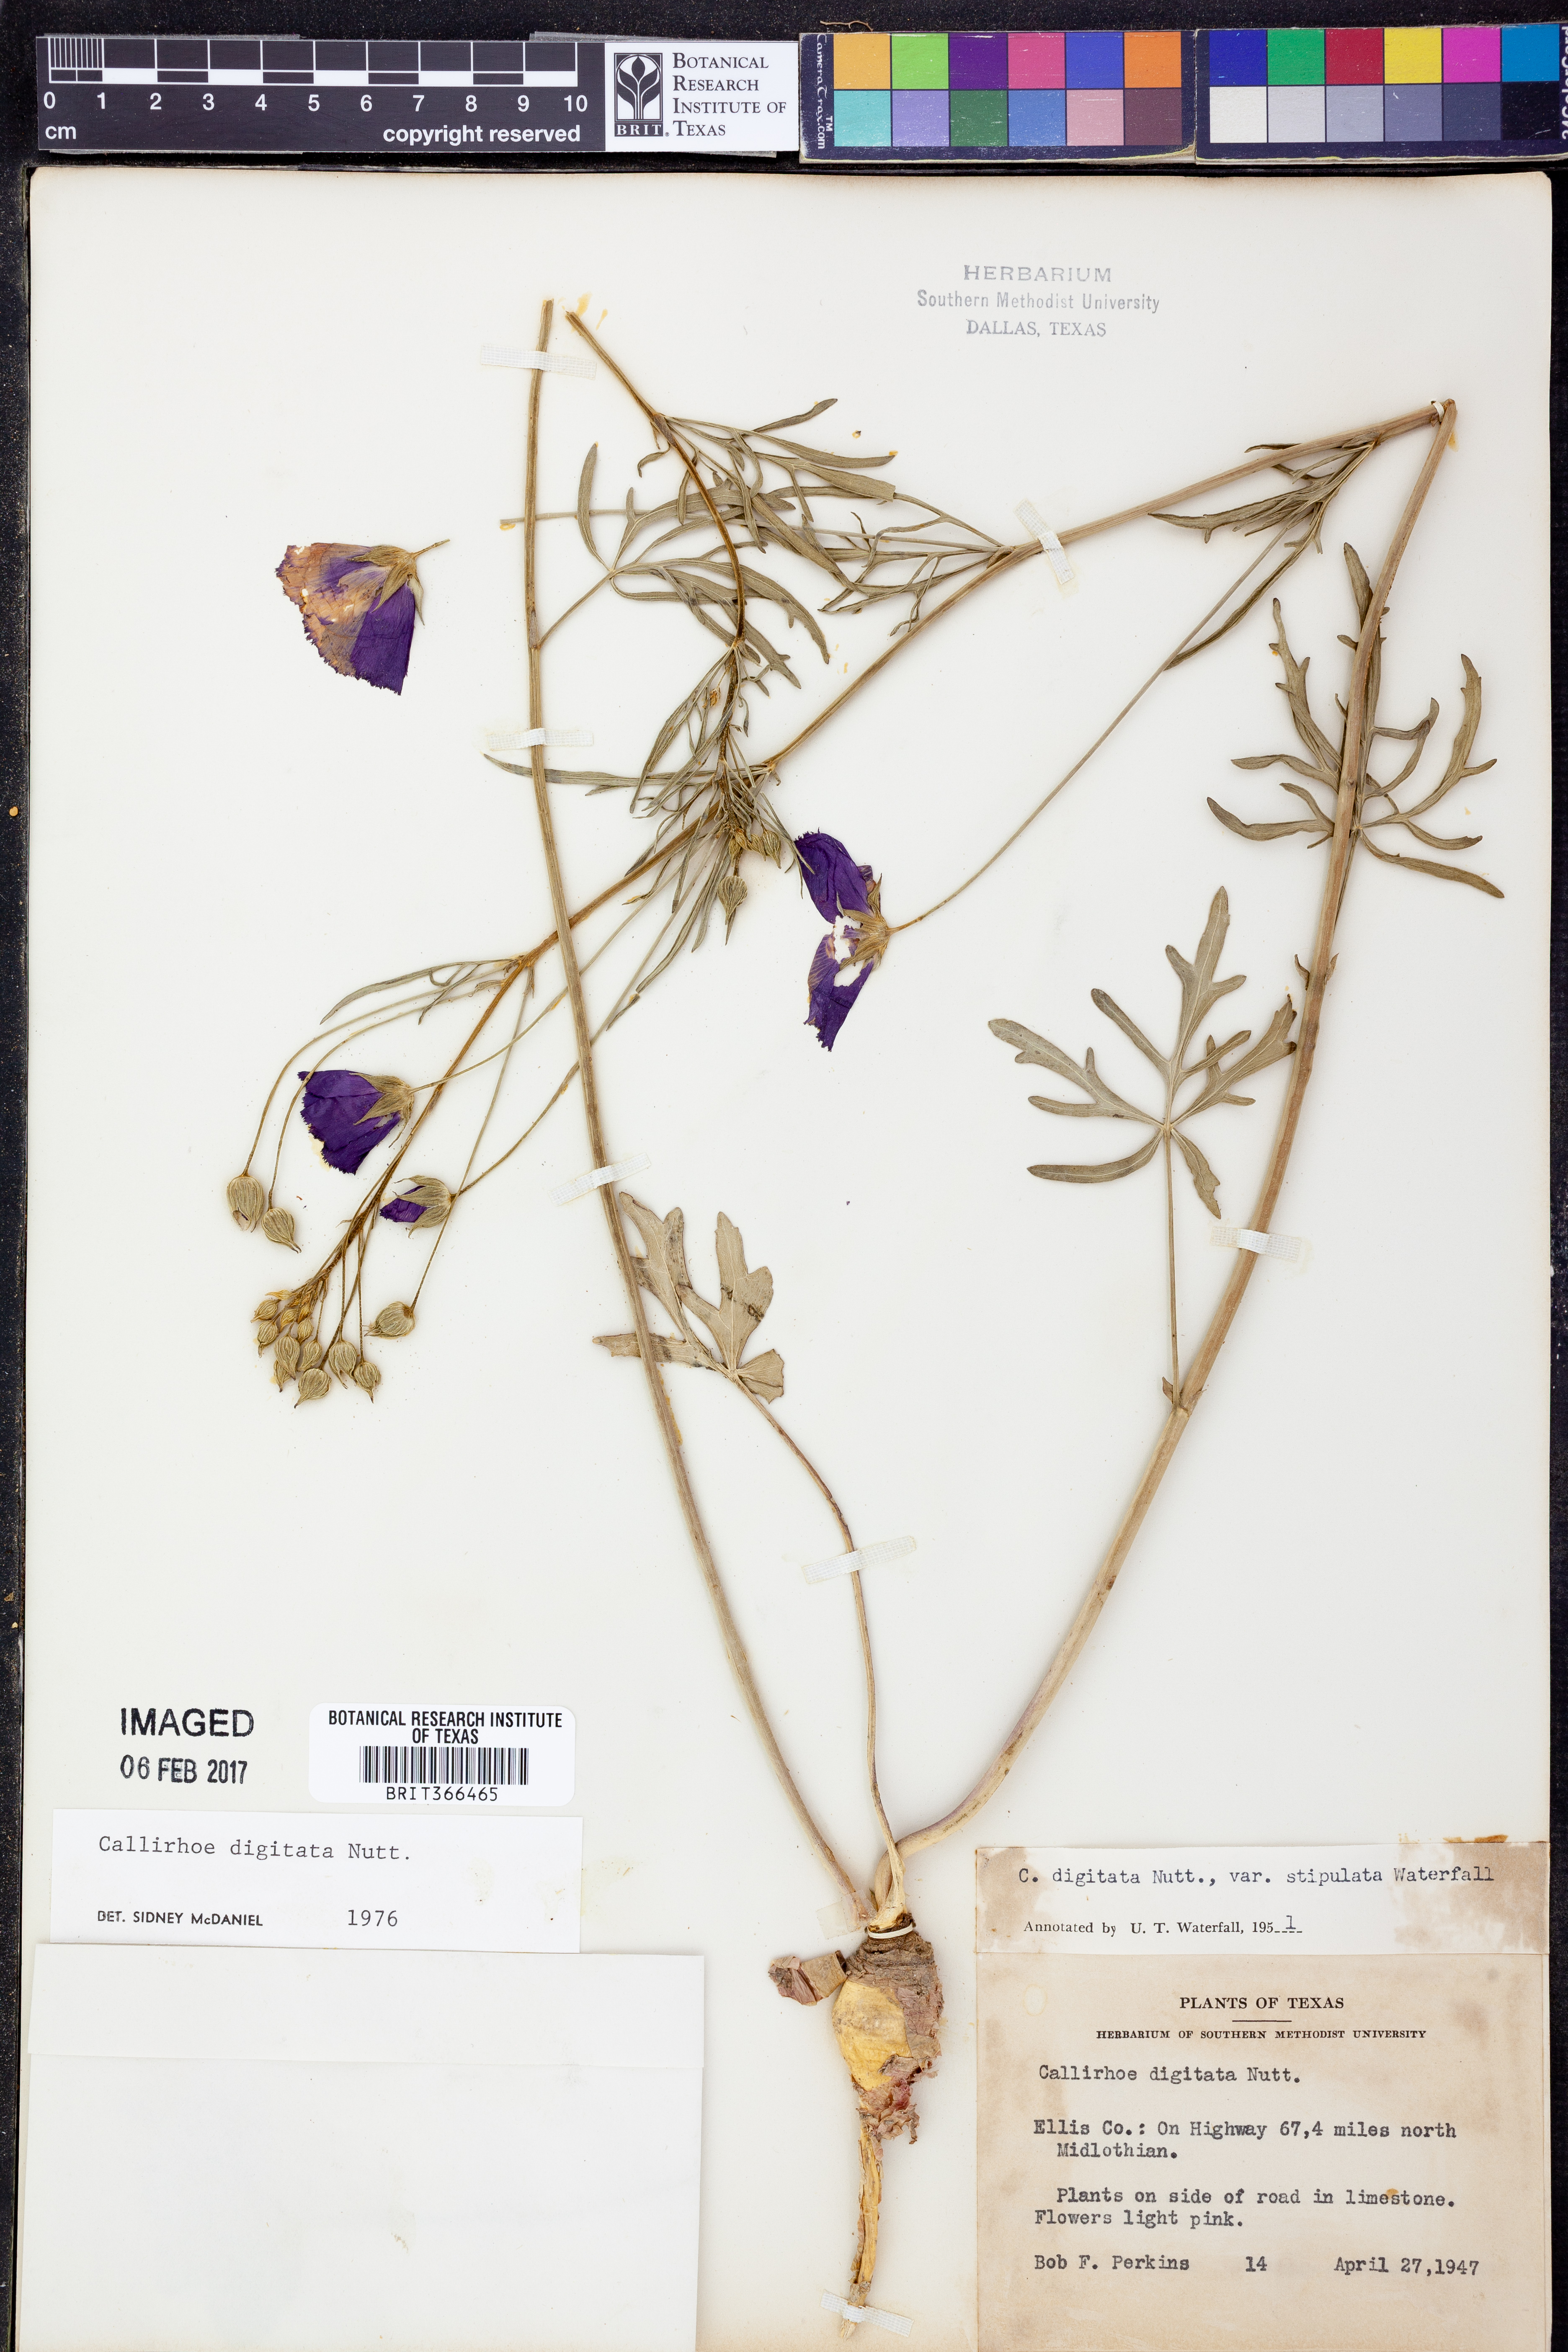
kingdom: Plantae
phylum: Tracheophyta
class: Magnoliopsida
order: Malvales
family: Malvaceae
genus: Callirhoe
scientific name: Callirhoe digitata
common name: Finger poppy-mallow
